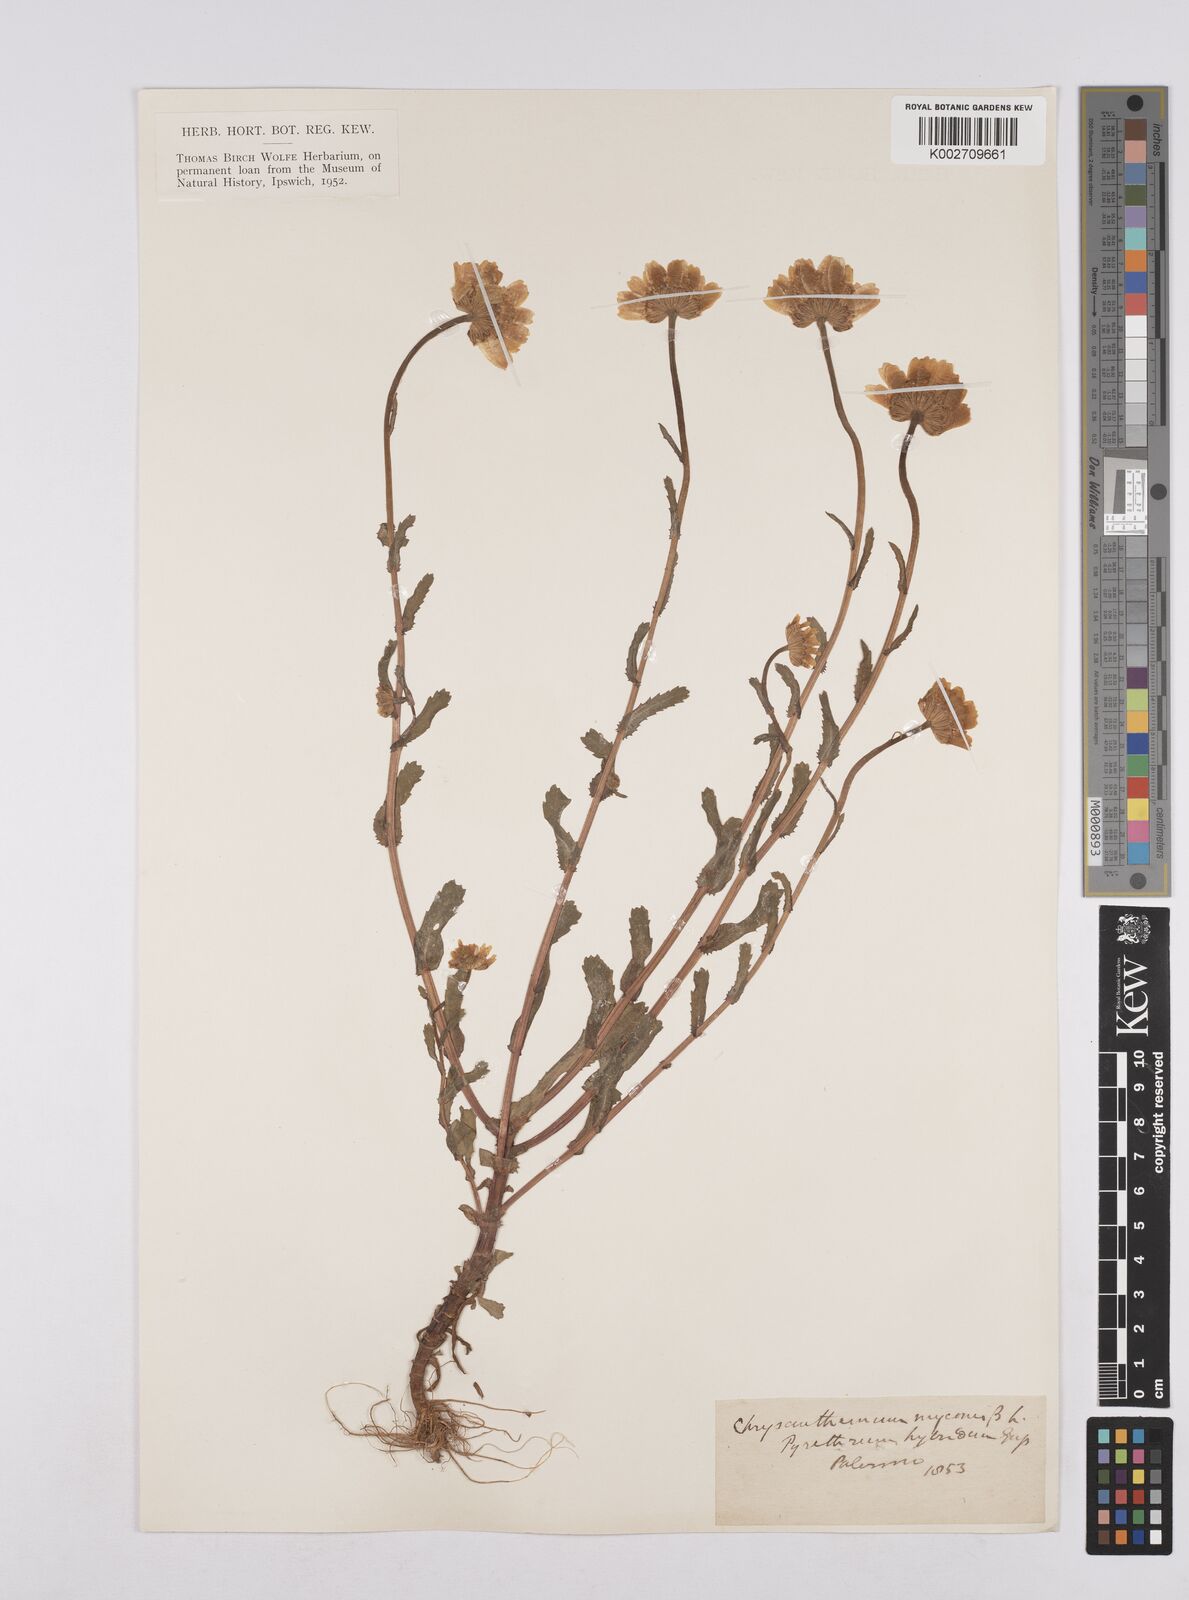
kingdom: Plantae
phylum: Tracheophyta
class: Magnoliopsida
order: Asterales
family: Asteraceae
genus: Coleostephus
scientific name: Coleostephus myconis
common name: Mediterranean marigold
